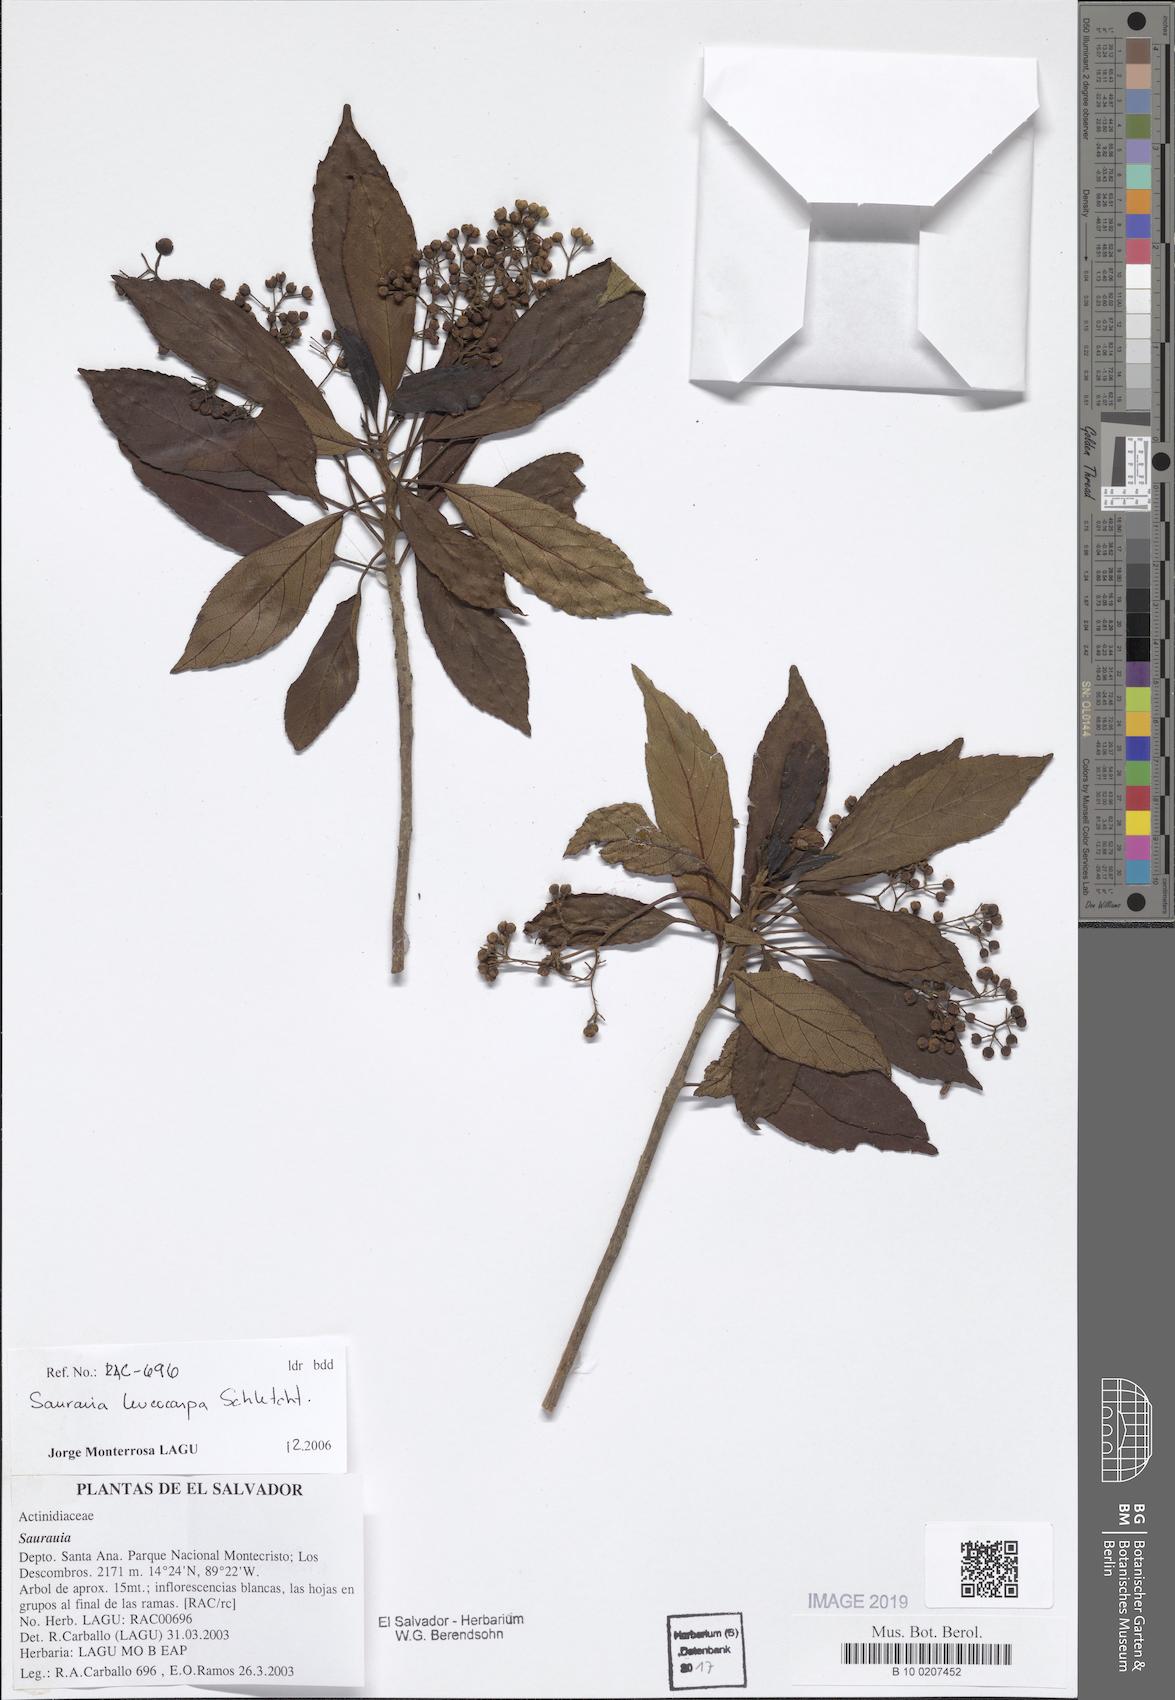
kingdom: Plantae
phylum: Tracheophyta
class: Magnoliopsida
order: Ericales
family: Actinidiaceae
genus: Saurauia
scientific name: Saurauia leucocarpa
